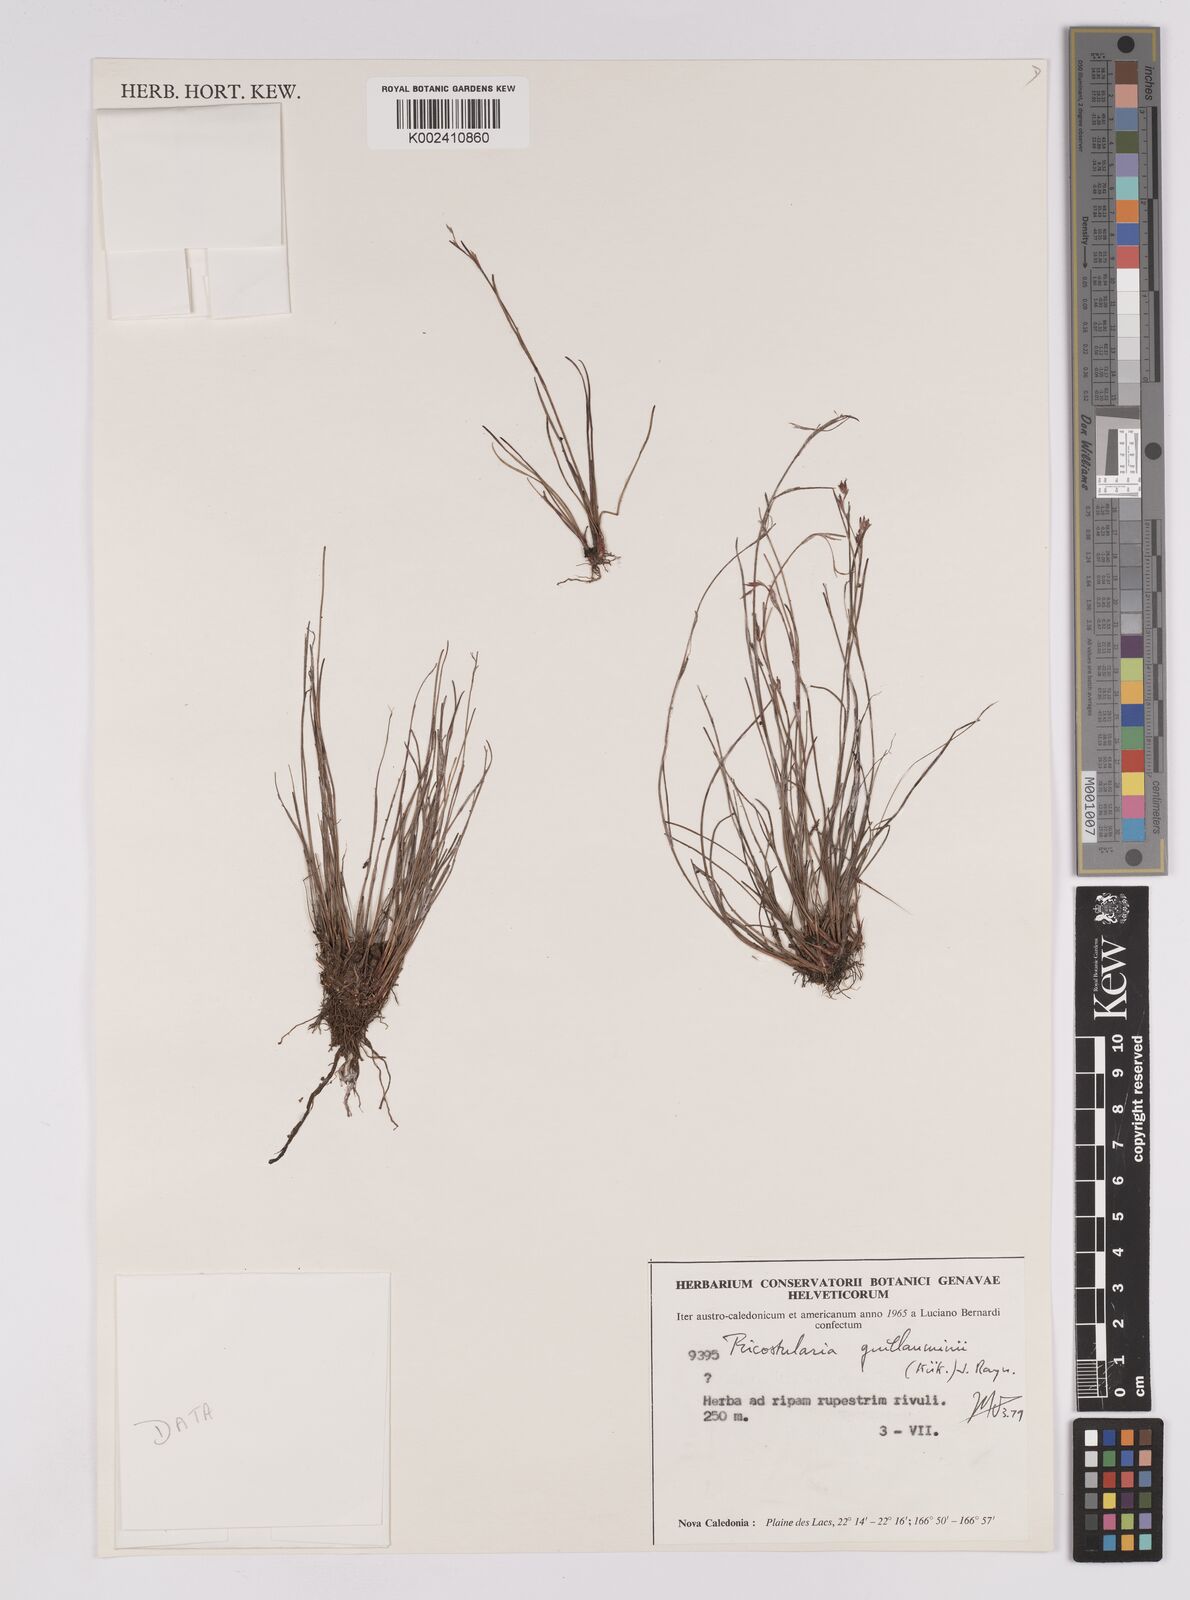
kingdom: Plantae
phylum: Tracheophyta
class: Liliopsida
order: Poales
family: Cyperaceae
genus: Anthelepis
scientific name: Anthelepis guillauminii
